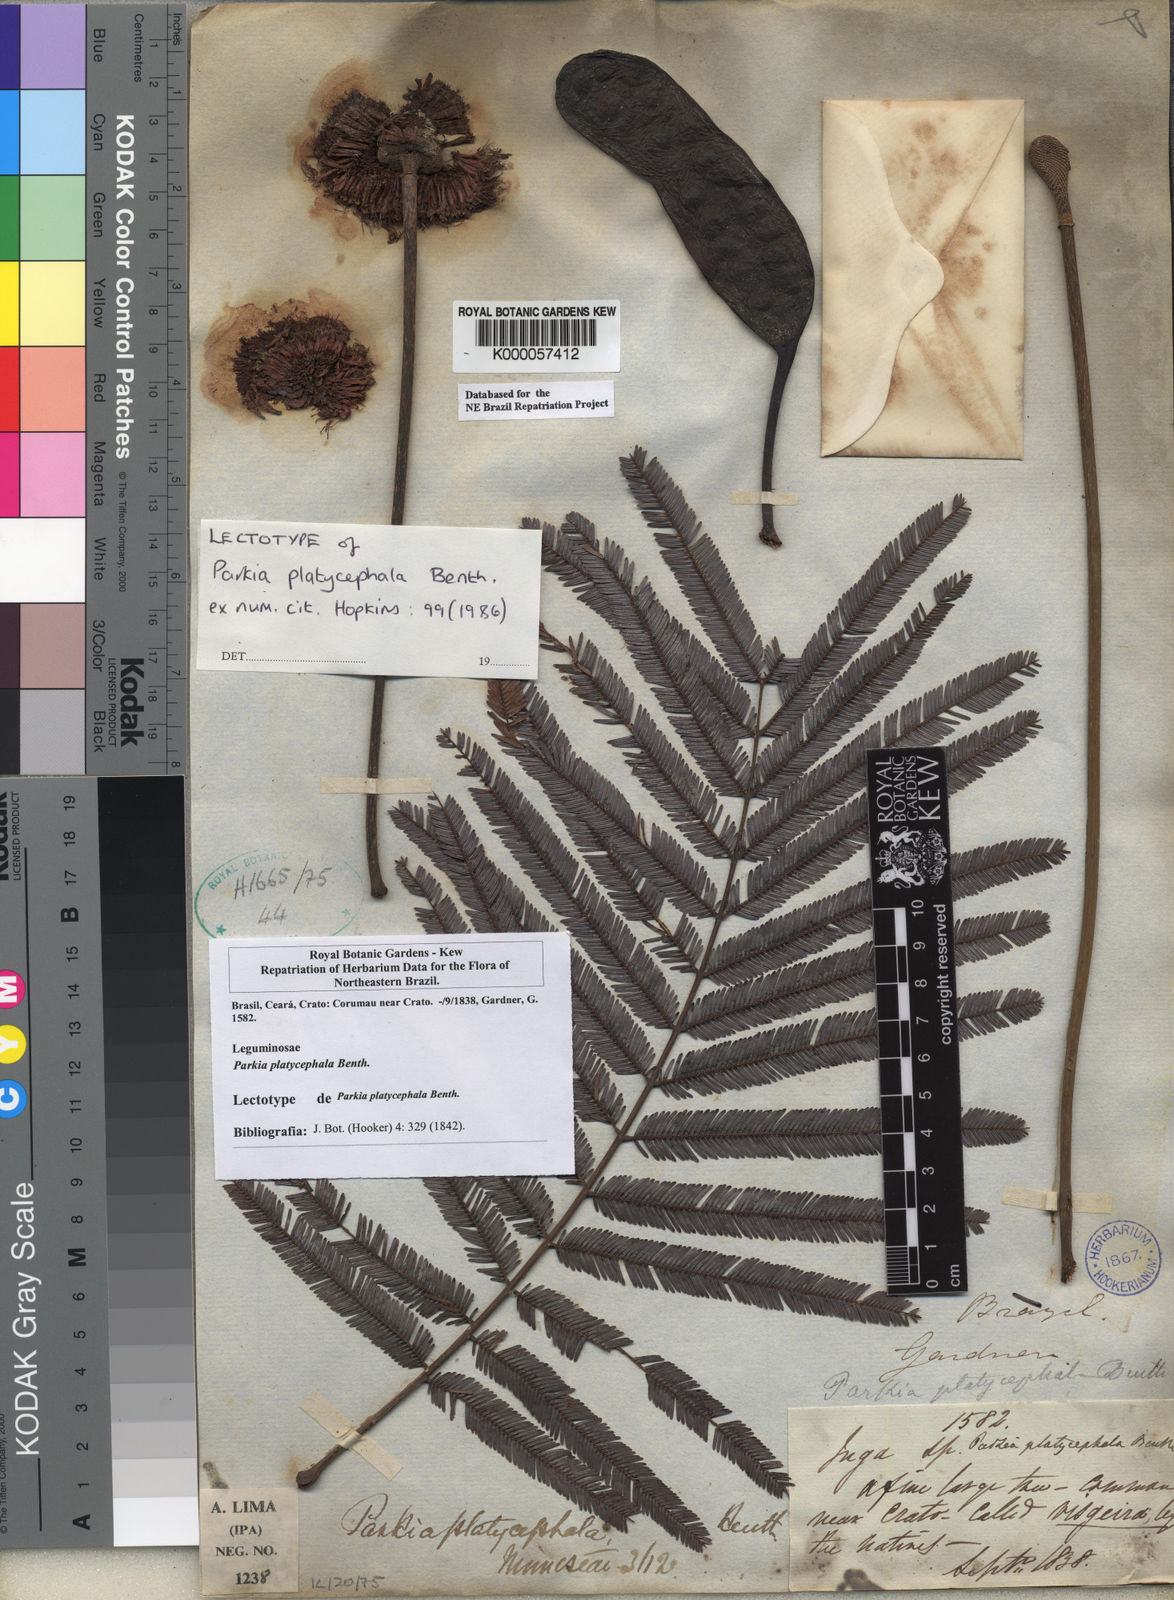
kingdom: Plantae
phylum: Tracheophyta
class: Magnoliopsida
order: Fabales
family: Fabaceae
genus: Parkia
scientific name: Parkia platycephala
